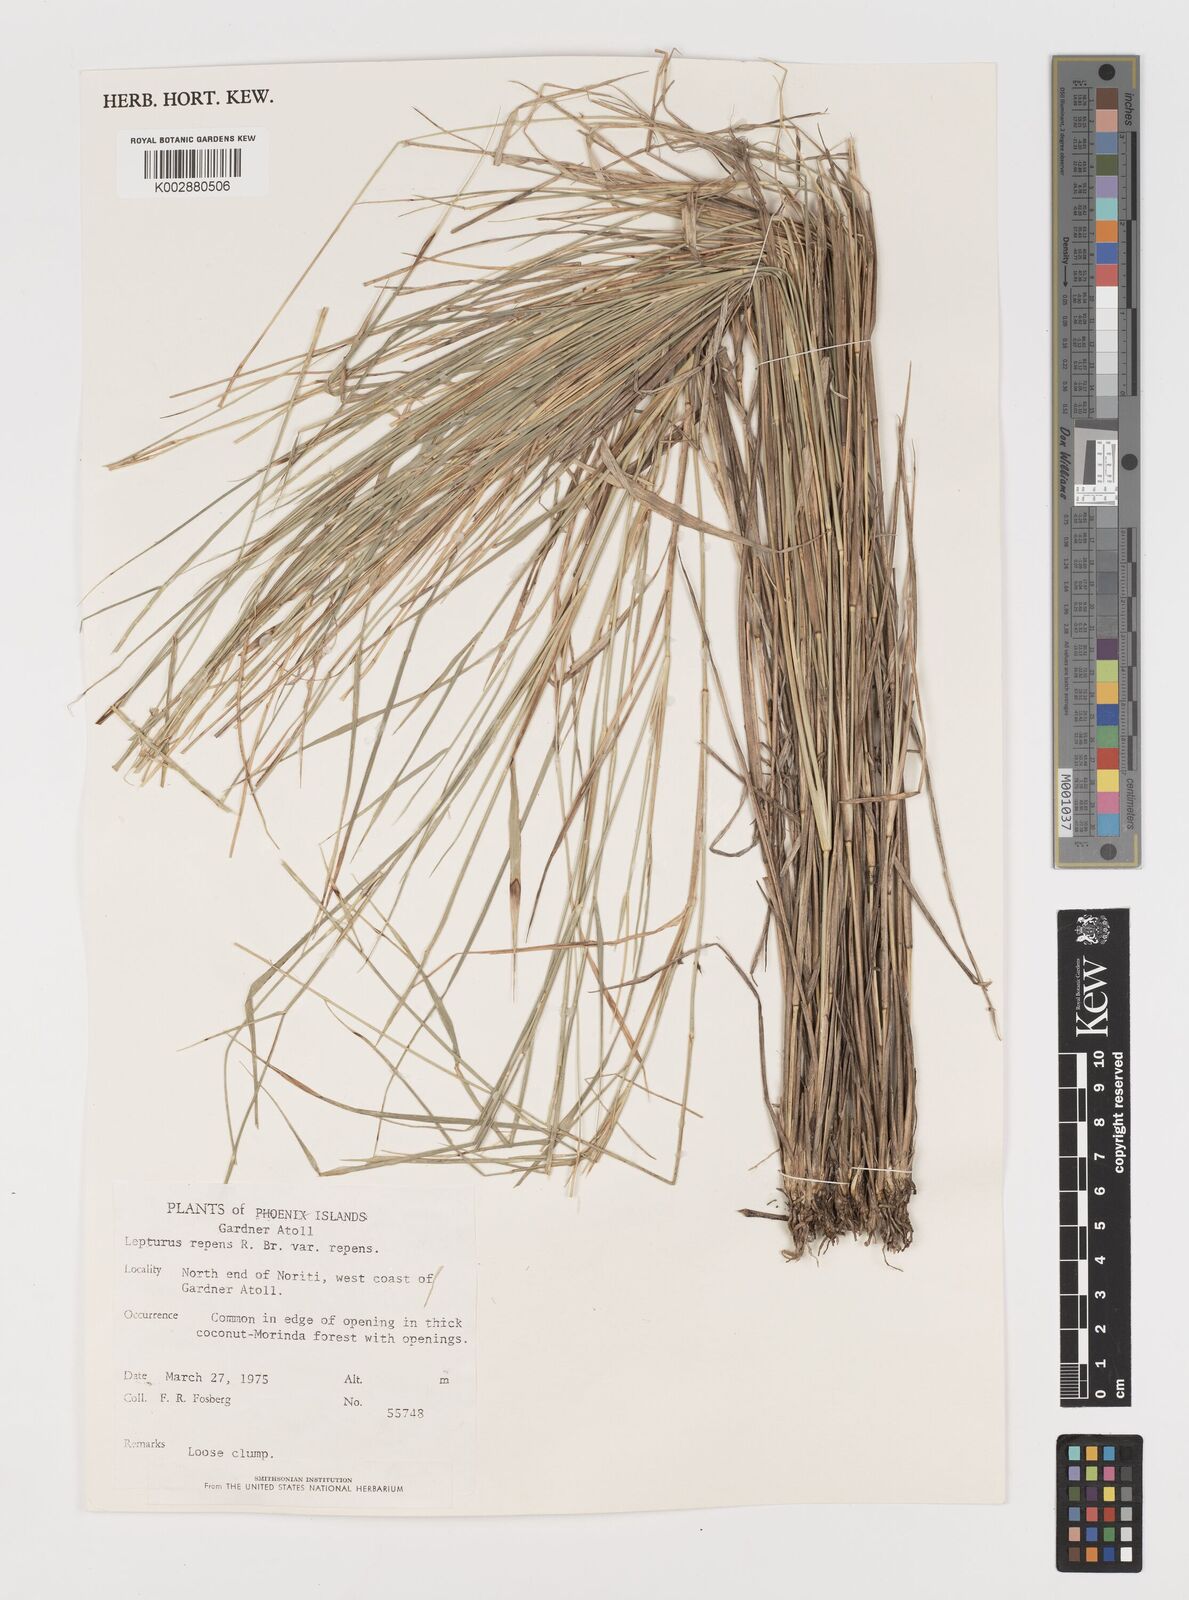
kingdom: Plantae
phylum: Tracheophyta
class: Liliopsida
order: Poales
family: Poaceae
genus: Lepturus
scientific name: Lepturus repens
